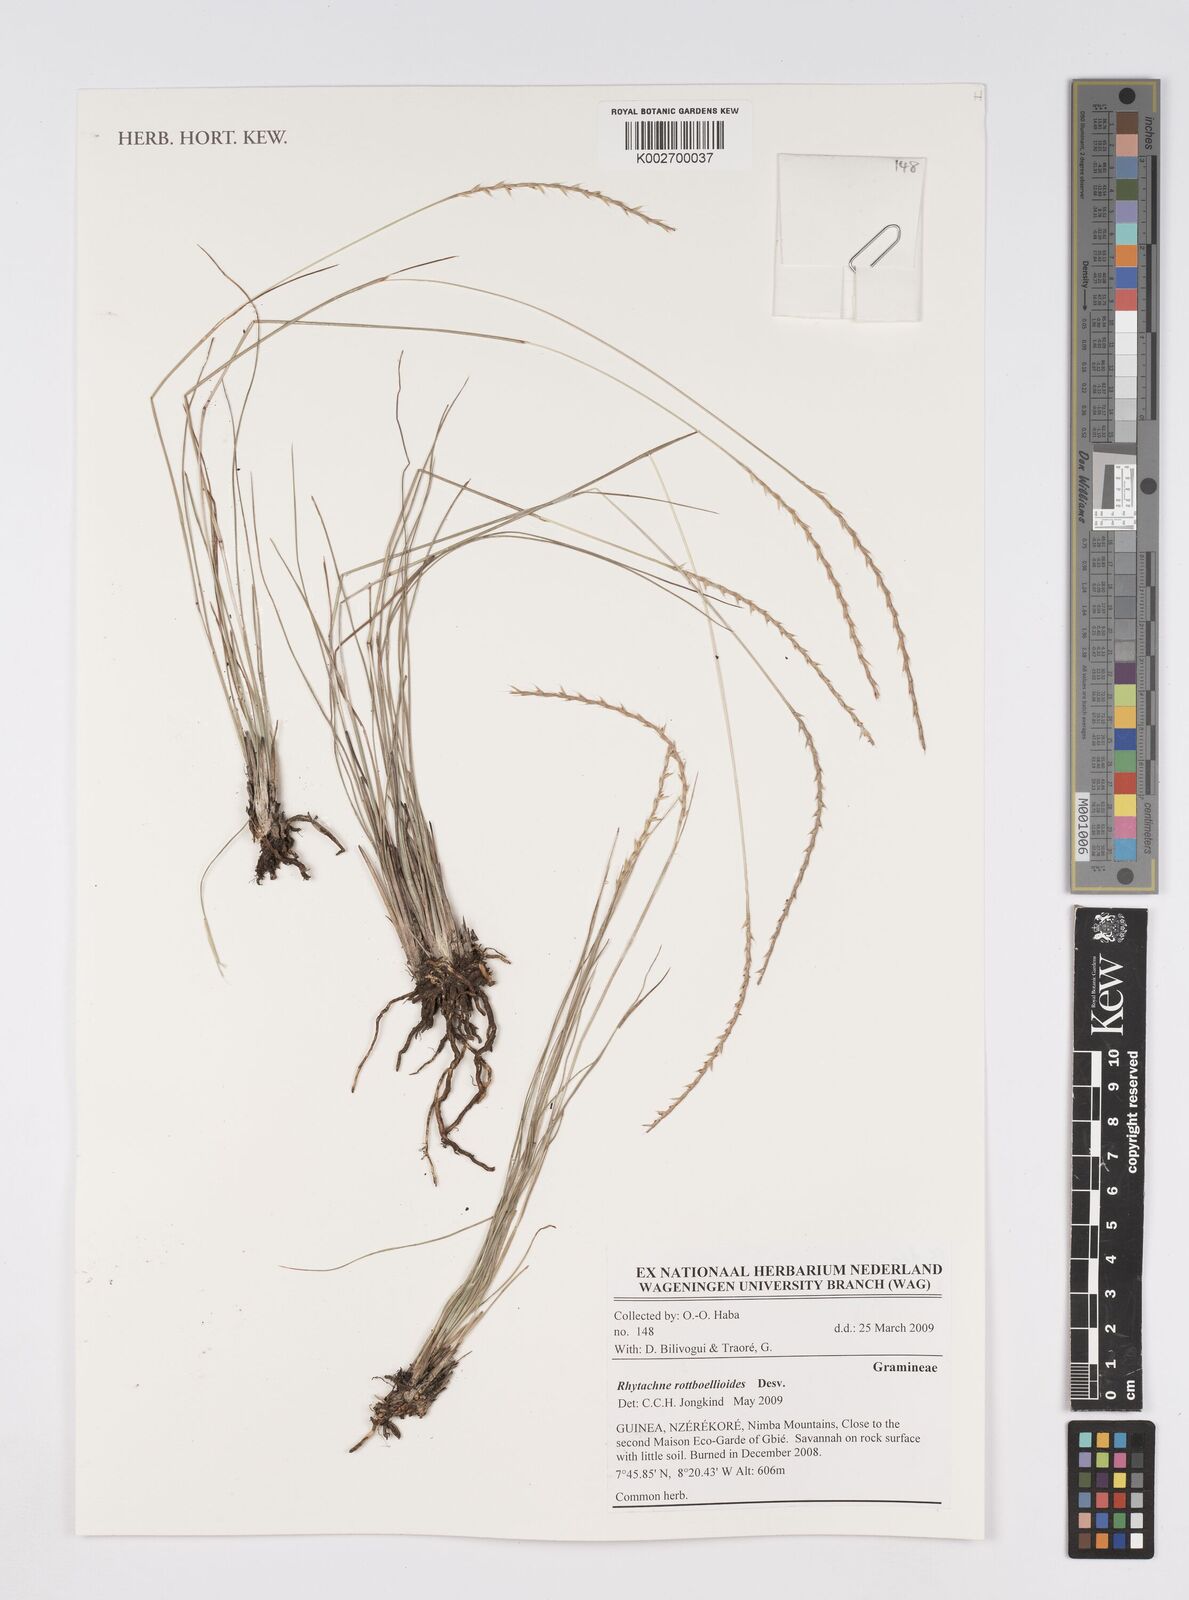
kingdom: Plantae
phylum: Tracheophyta
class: Liliopsida
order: Poales
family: Poaceae
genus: Rhytachne
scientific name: Rhytachne rottboellioides
